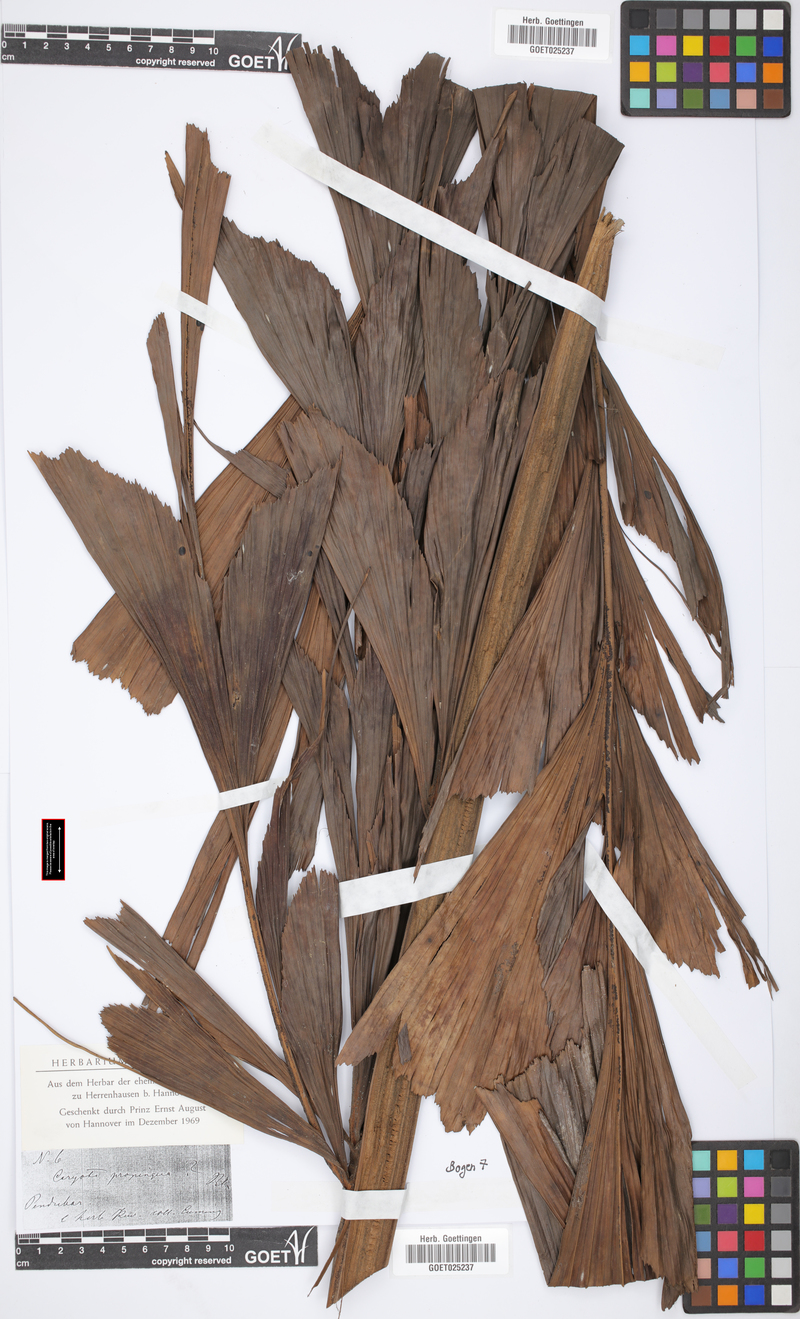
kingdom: Plantae
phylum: Tracheophyta
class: Liliopsida
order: Arecales
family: Arecaceae
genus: Caryota
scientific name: Caryota mitis
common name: Burmese fishtail palm
